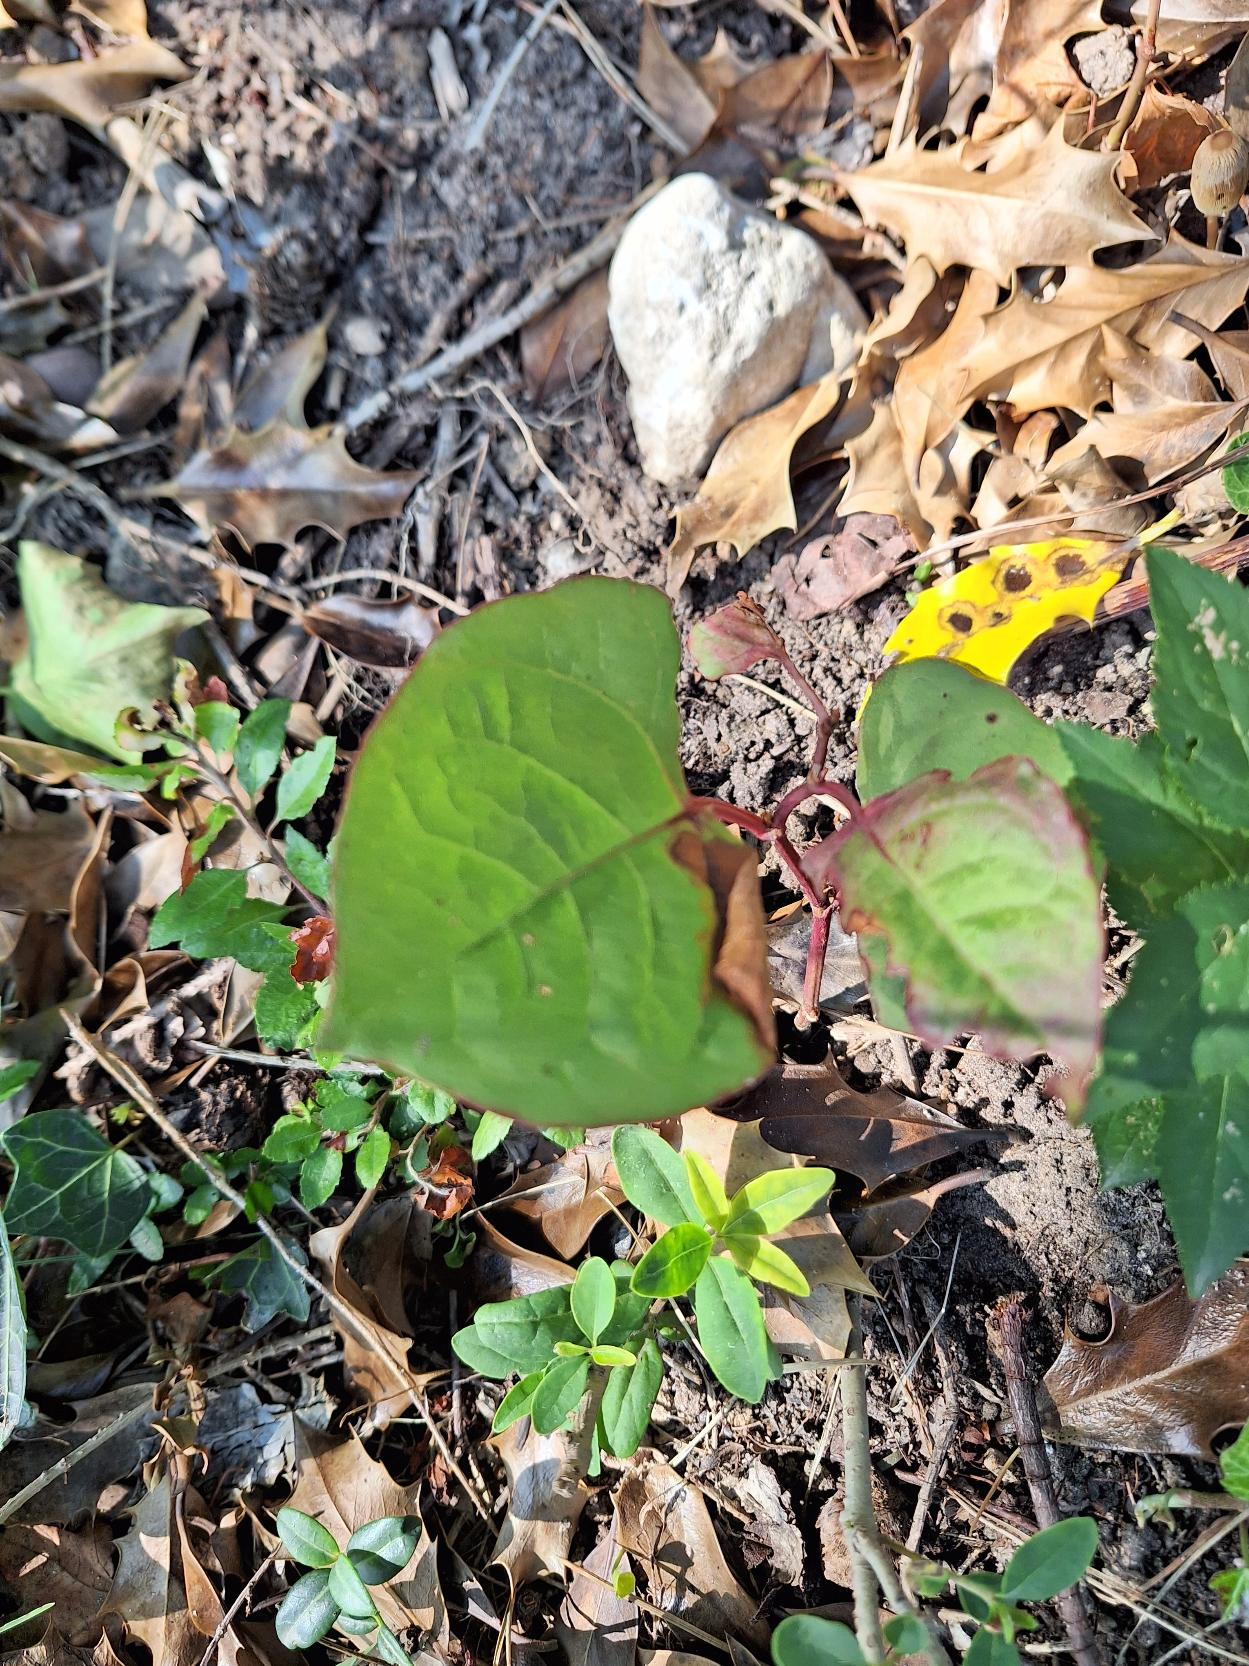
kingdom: Plantae
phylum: Tracheophyta
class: Magnoliopsida
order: Caryophyllales
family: Polygonaceae
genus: Reynoutria
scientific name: Reynoutria japonica
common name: Japan-pileurt
